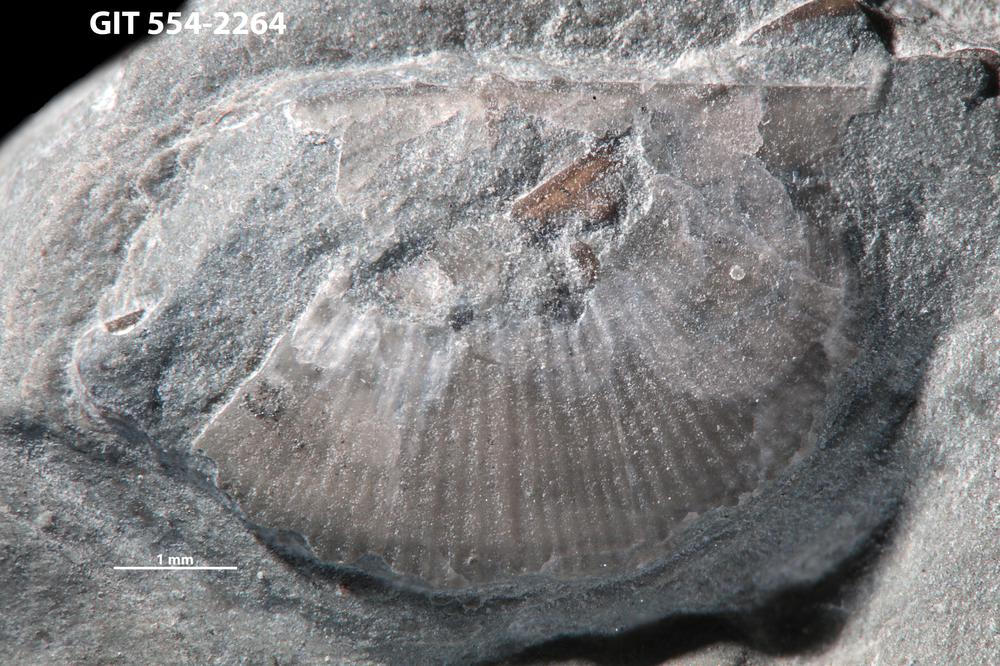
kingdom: Animalia
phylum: Brachiopoda
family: Chonetidae
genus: Strophochonetes
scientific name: Strophochonetes Chonetes cingulata
